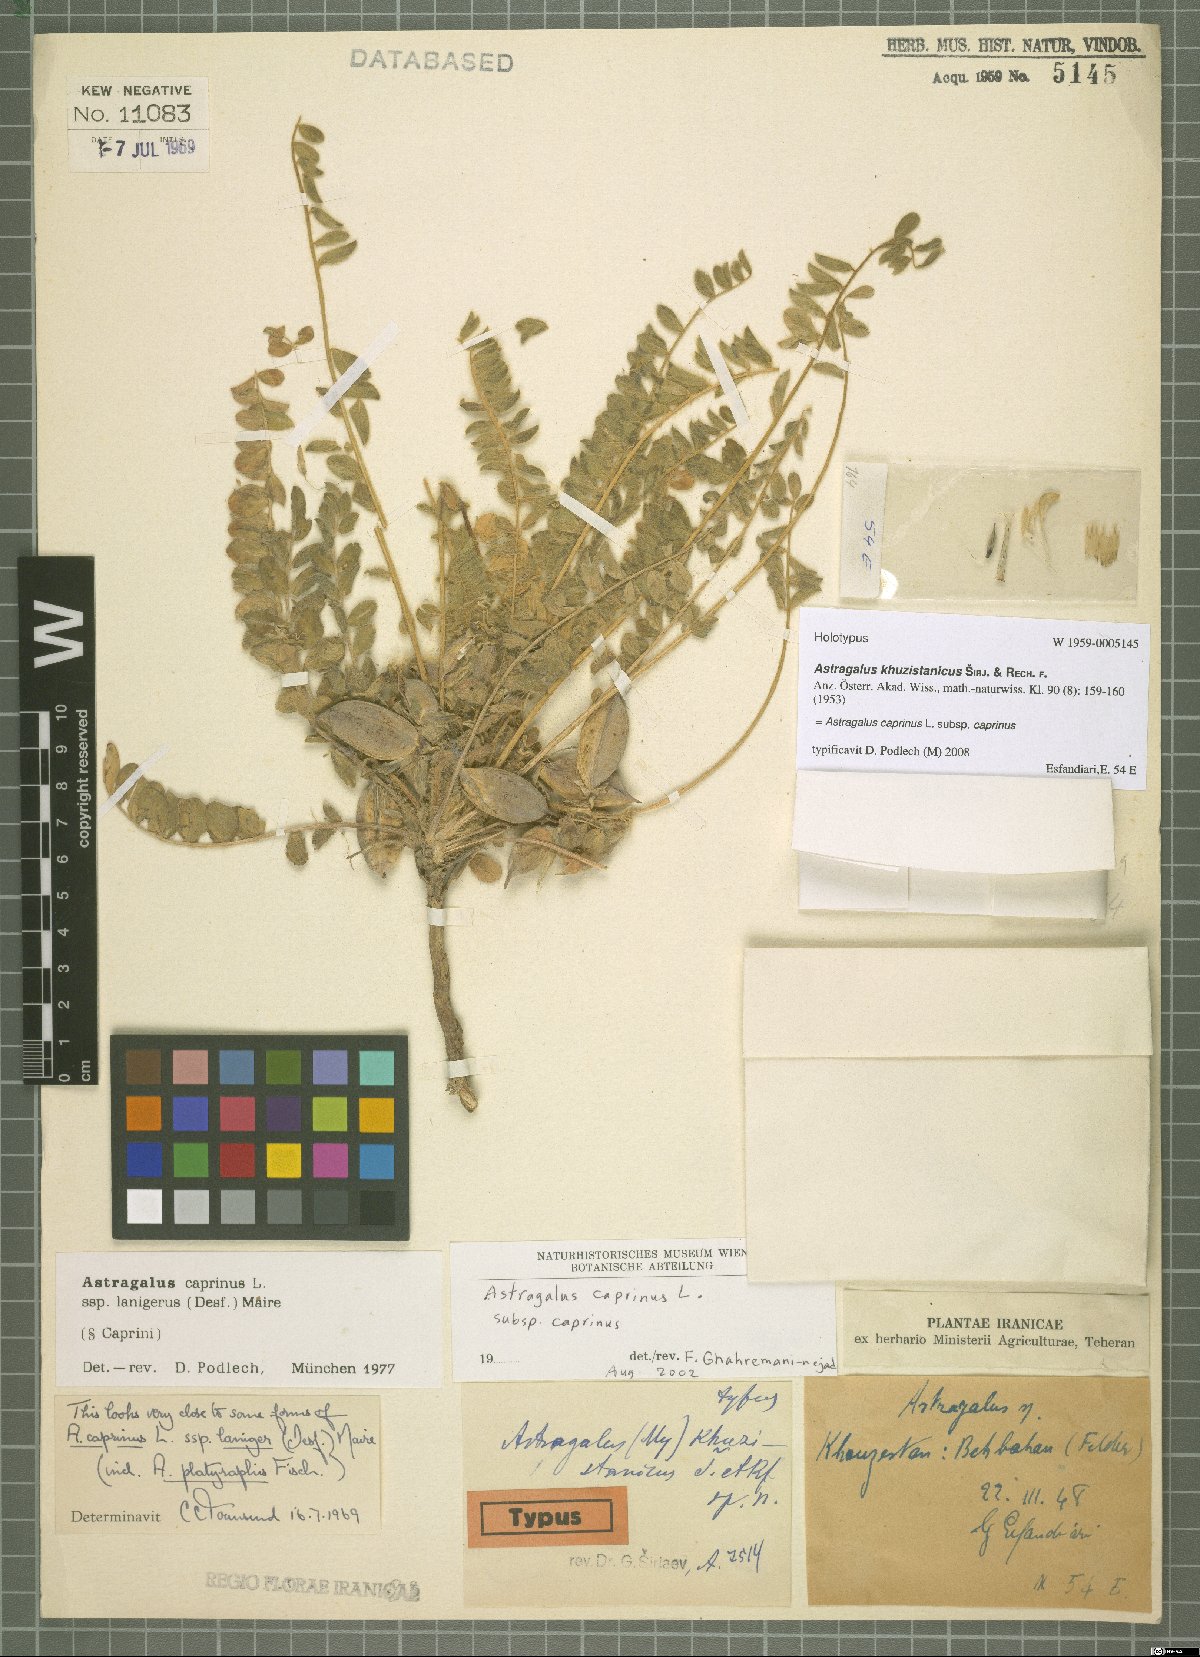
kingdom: Plantae
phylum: Tracheophyta
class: Magnoliopsida
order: Fabales
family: Fabaceae
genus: Astragalus
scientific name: Astragalus caprinus
